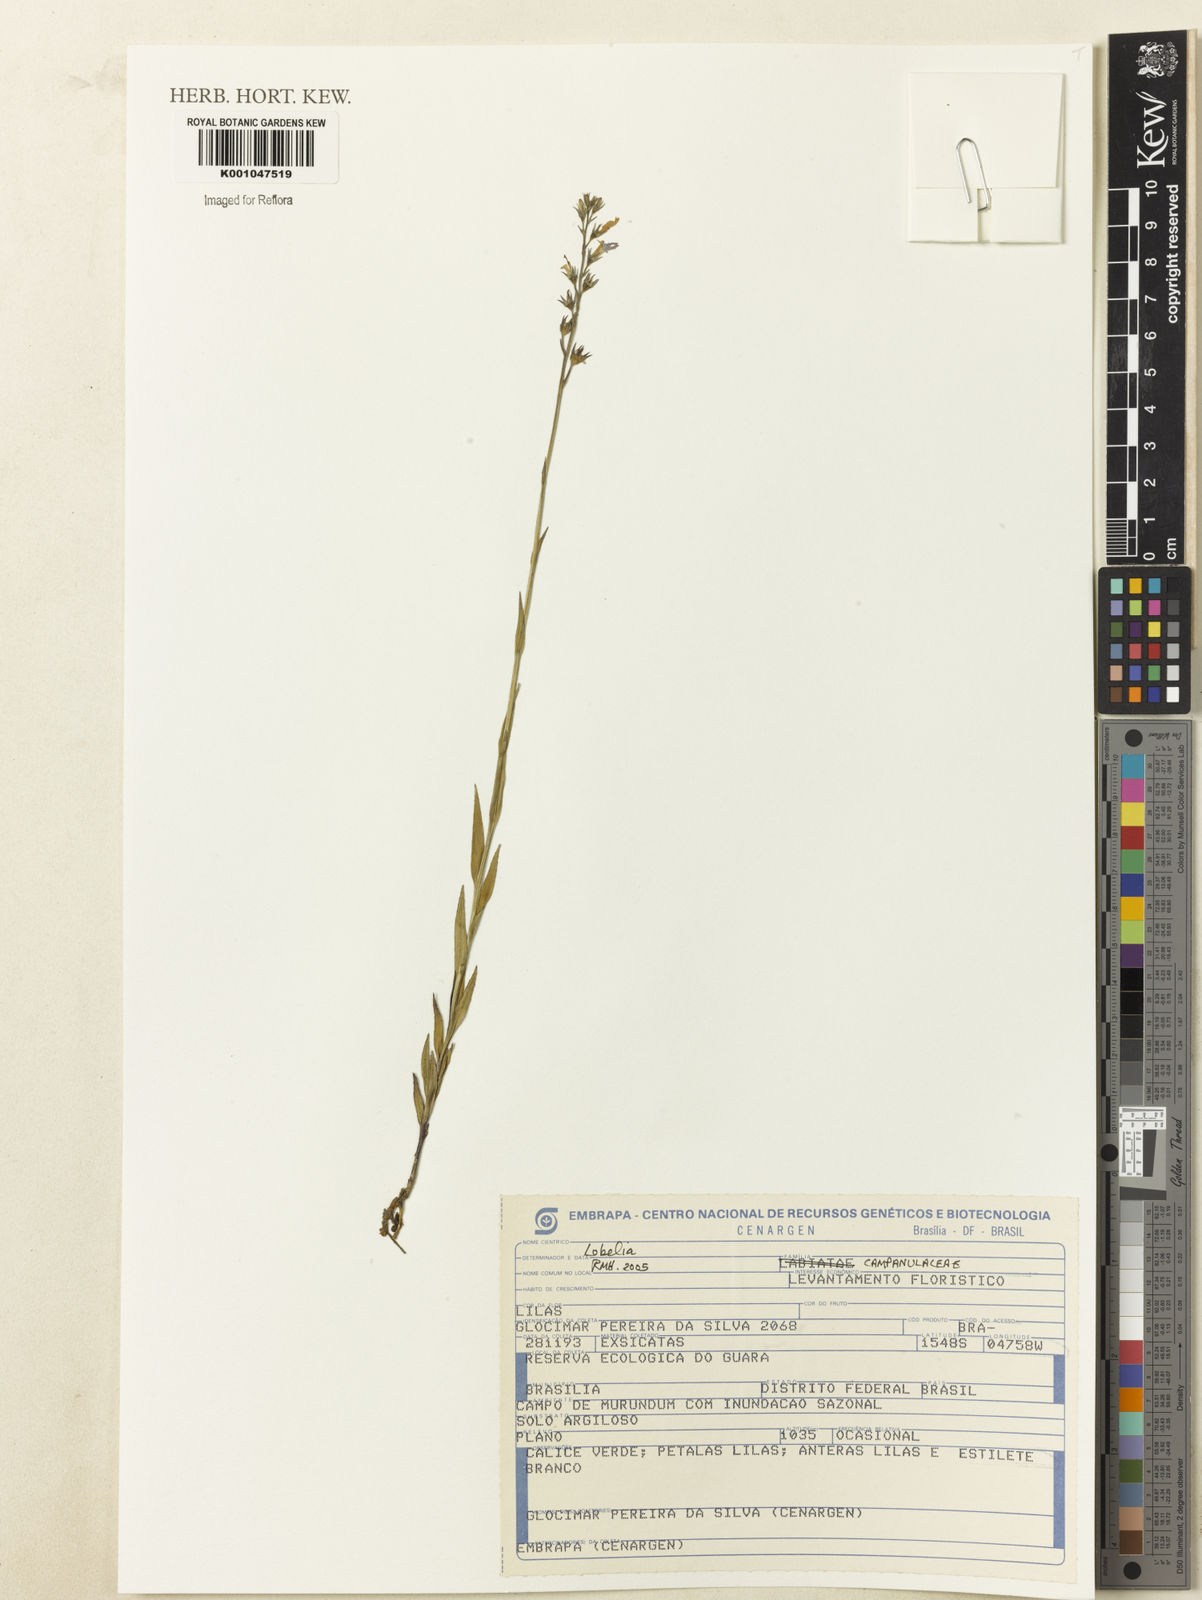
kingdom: Plantae
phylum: Tracheophyta
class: Magnoliopsida
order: Asterales
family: Campanulaceae
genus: Lobelia
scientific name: Lobelia
